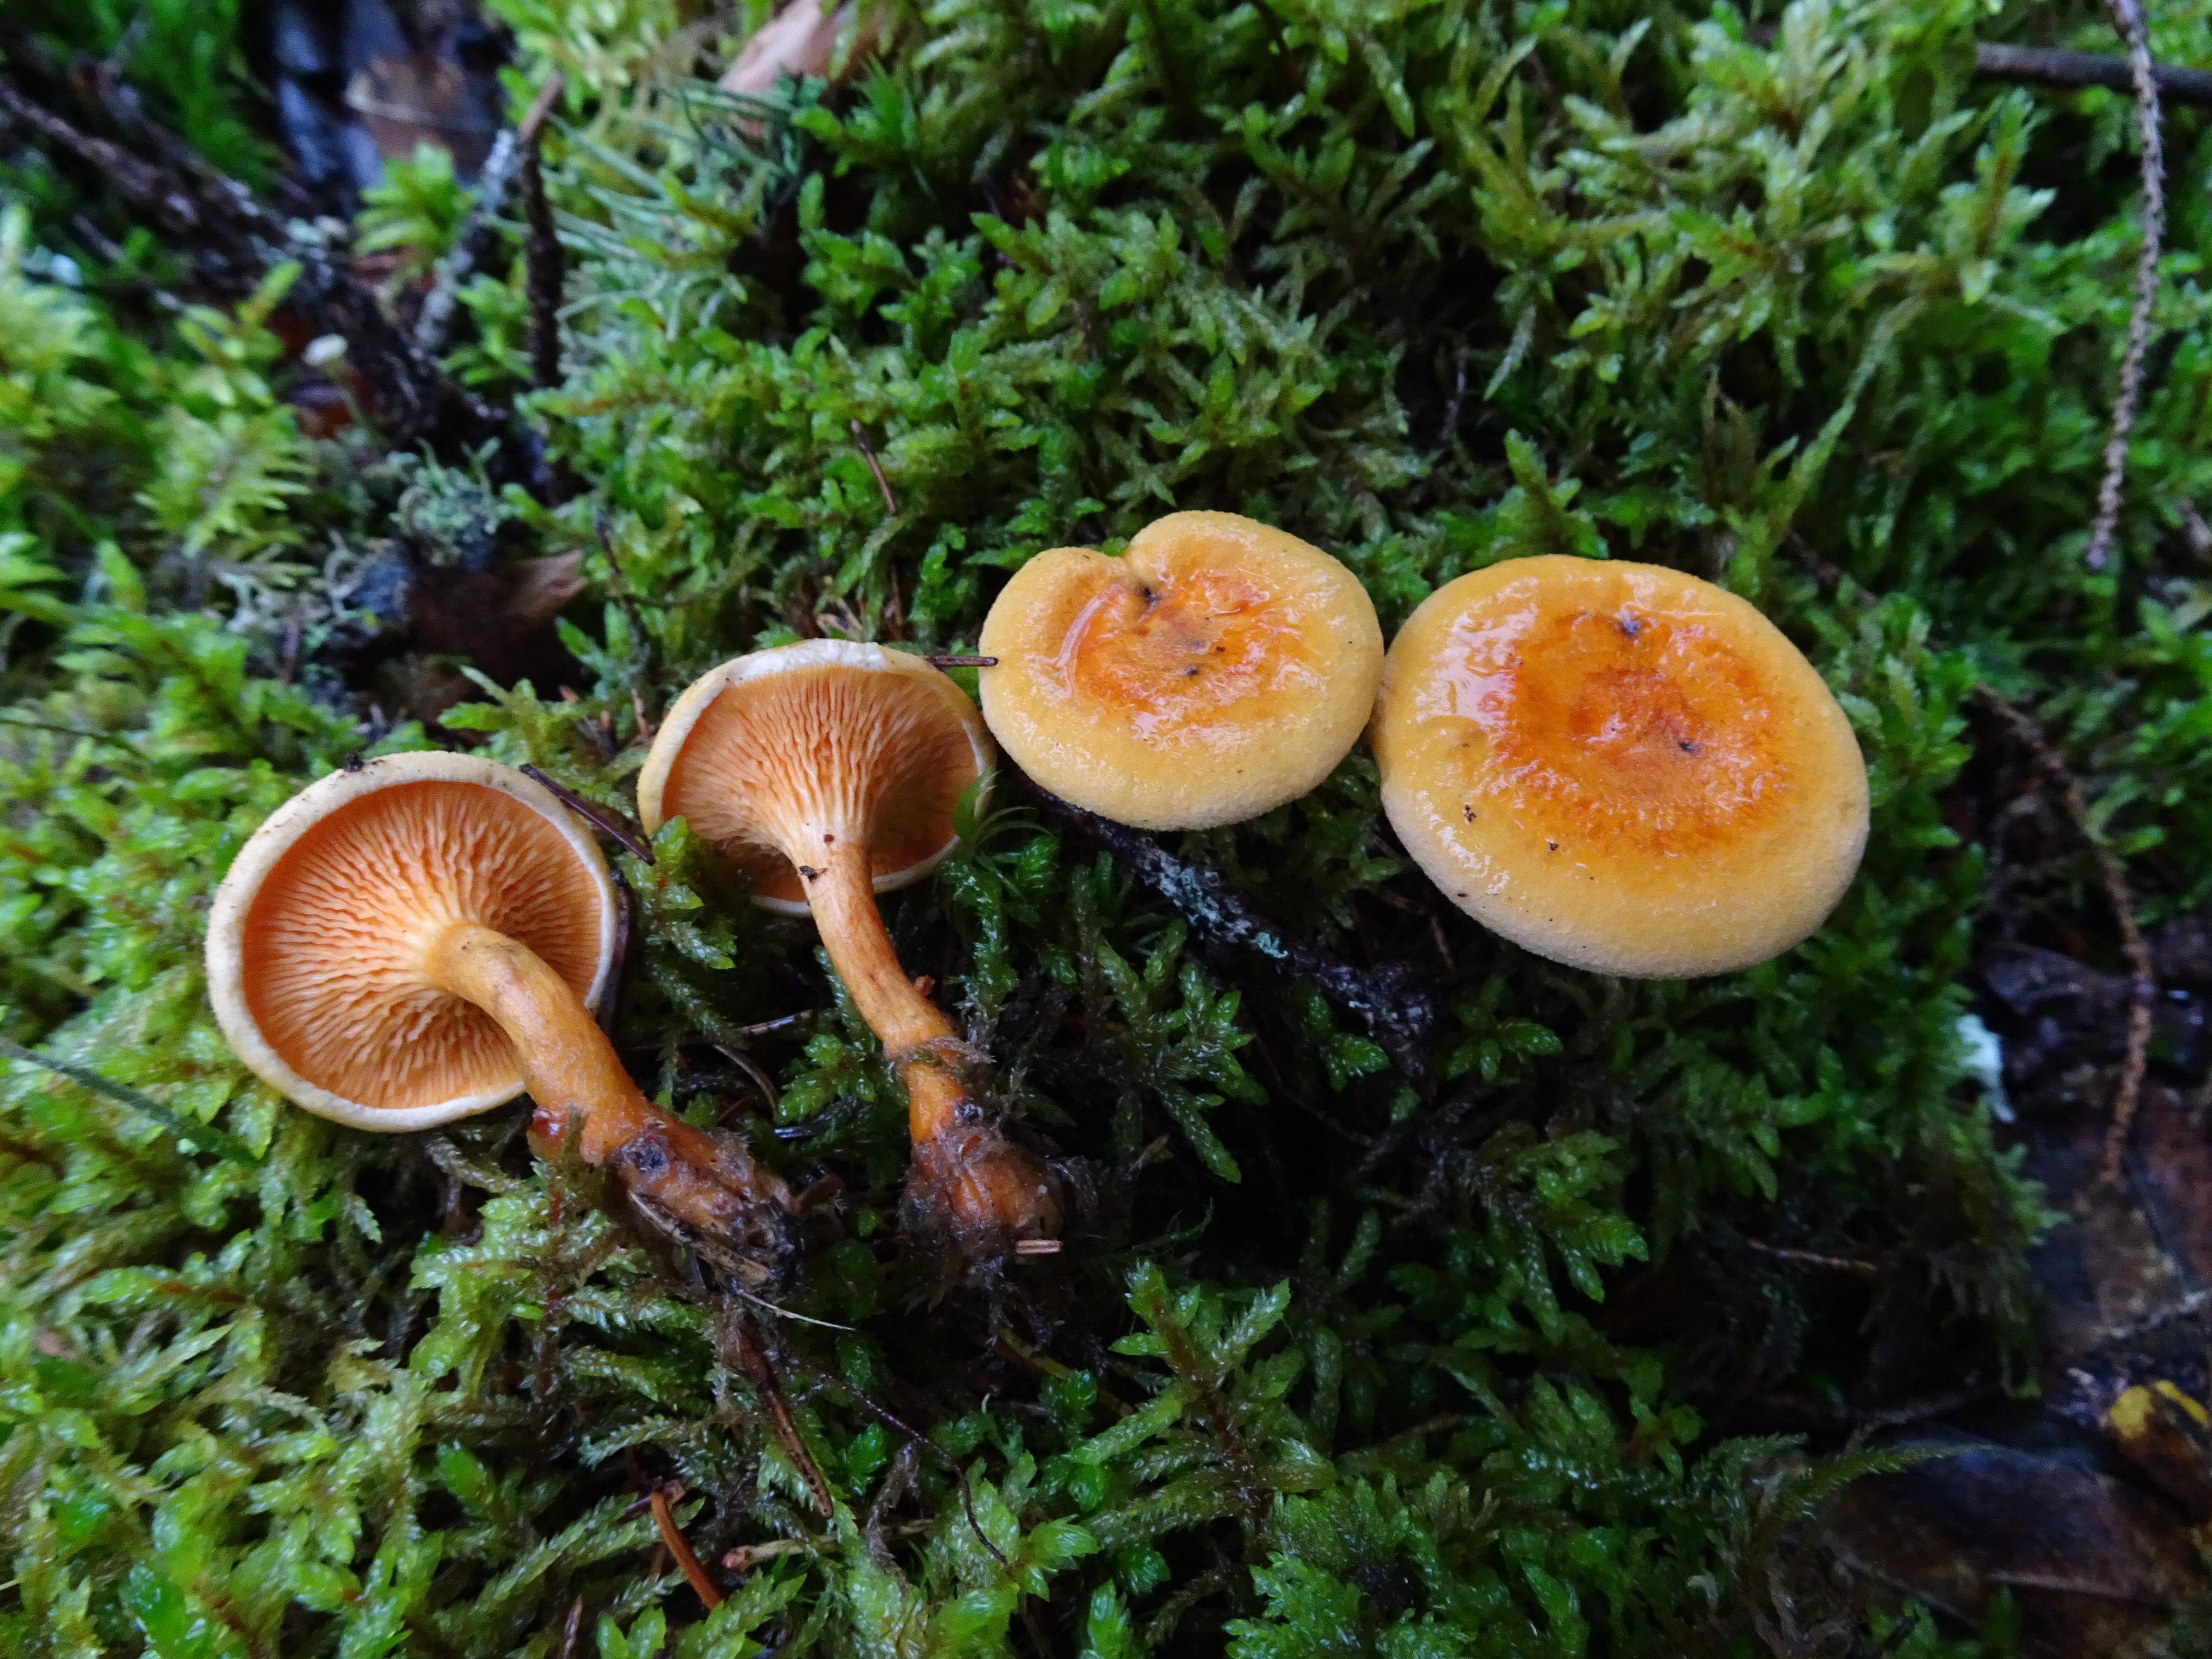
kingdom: Fungi
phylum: Basidiomycota
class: Agaricomycetes
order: Boletales
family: Hygrophoropsidaceae
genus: Hygrophoropsis
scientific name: Hygrophoropsis aurantiaca
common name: False chanterelle
